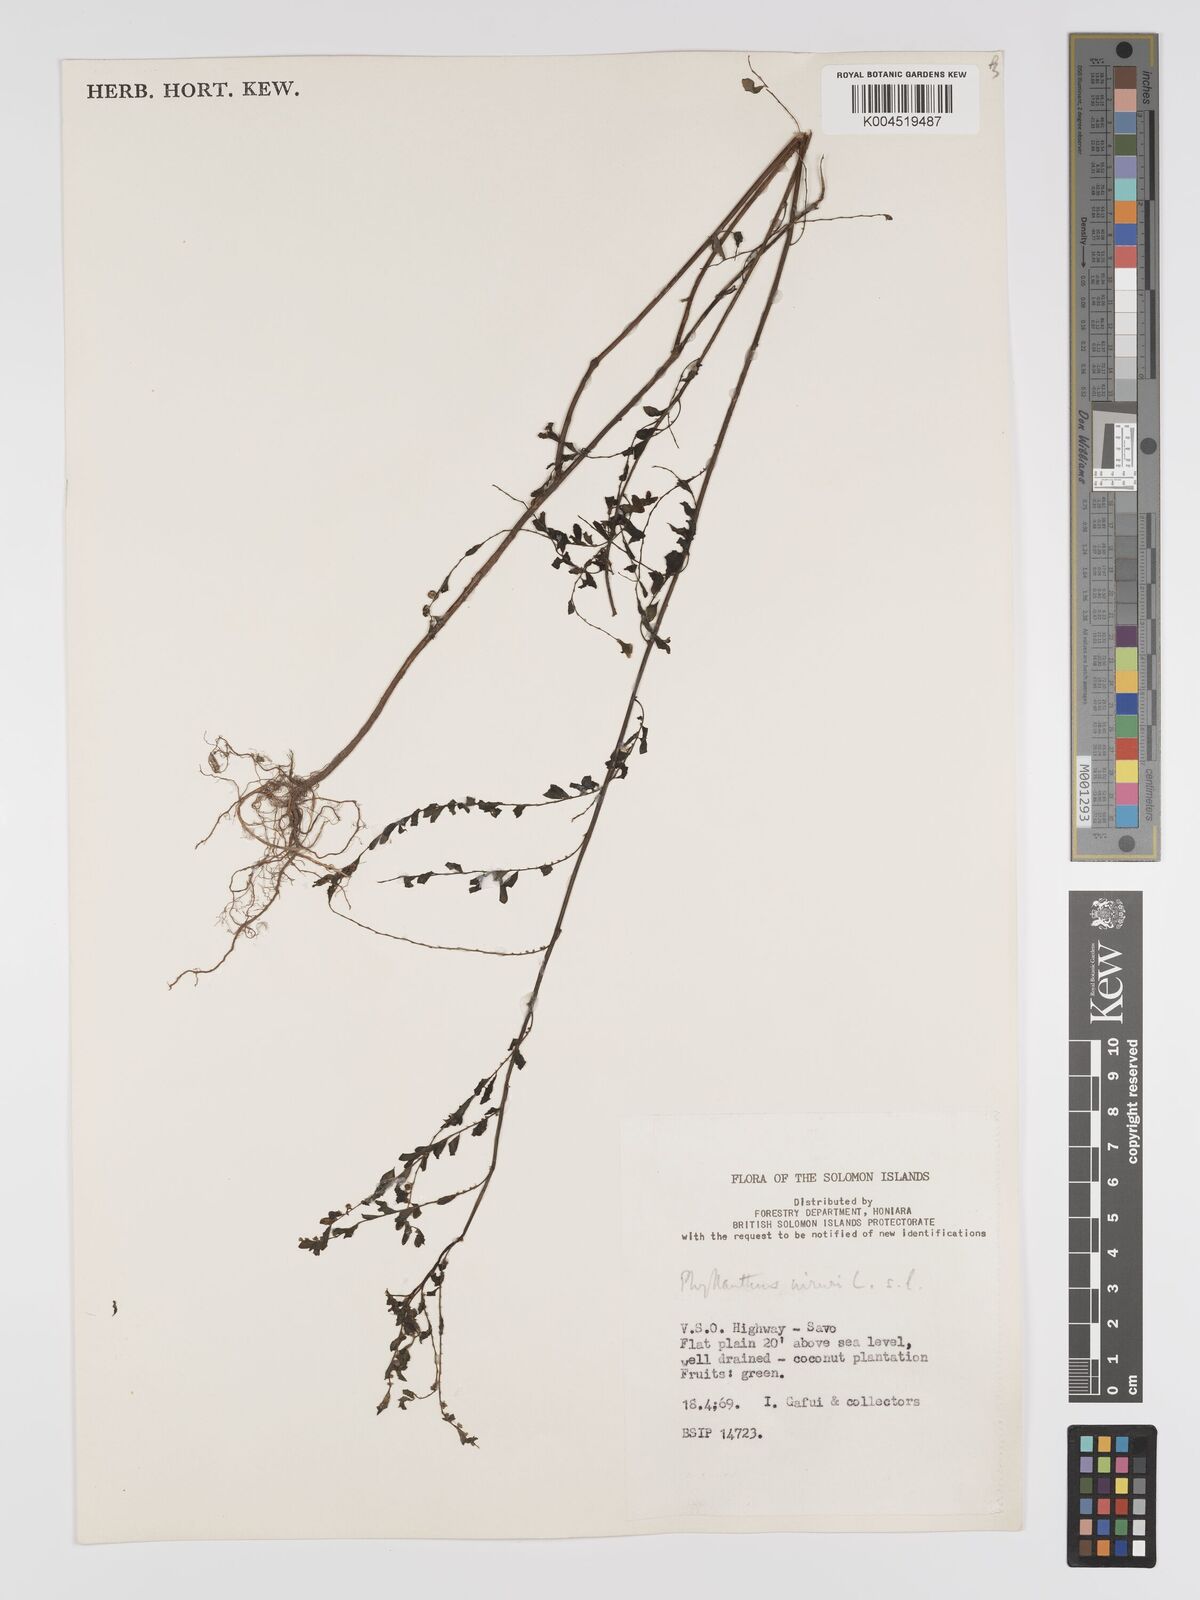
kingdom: Plantae
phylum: Tracheophyta
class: Magnoliopsida
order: Malpighiales
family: Phyllanthaceae
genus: Phyllanthus
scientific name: Phyllanthus niruri
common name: Niruri
